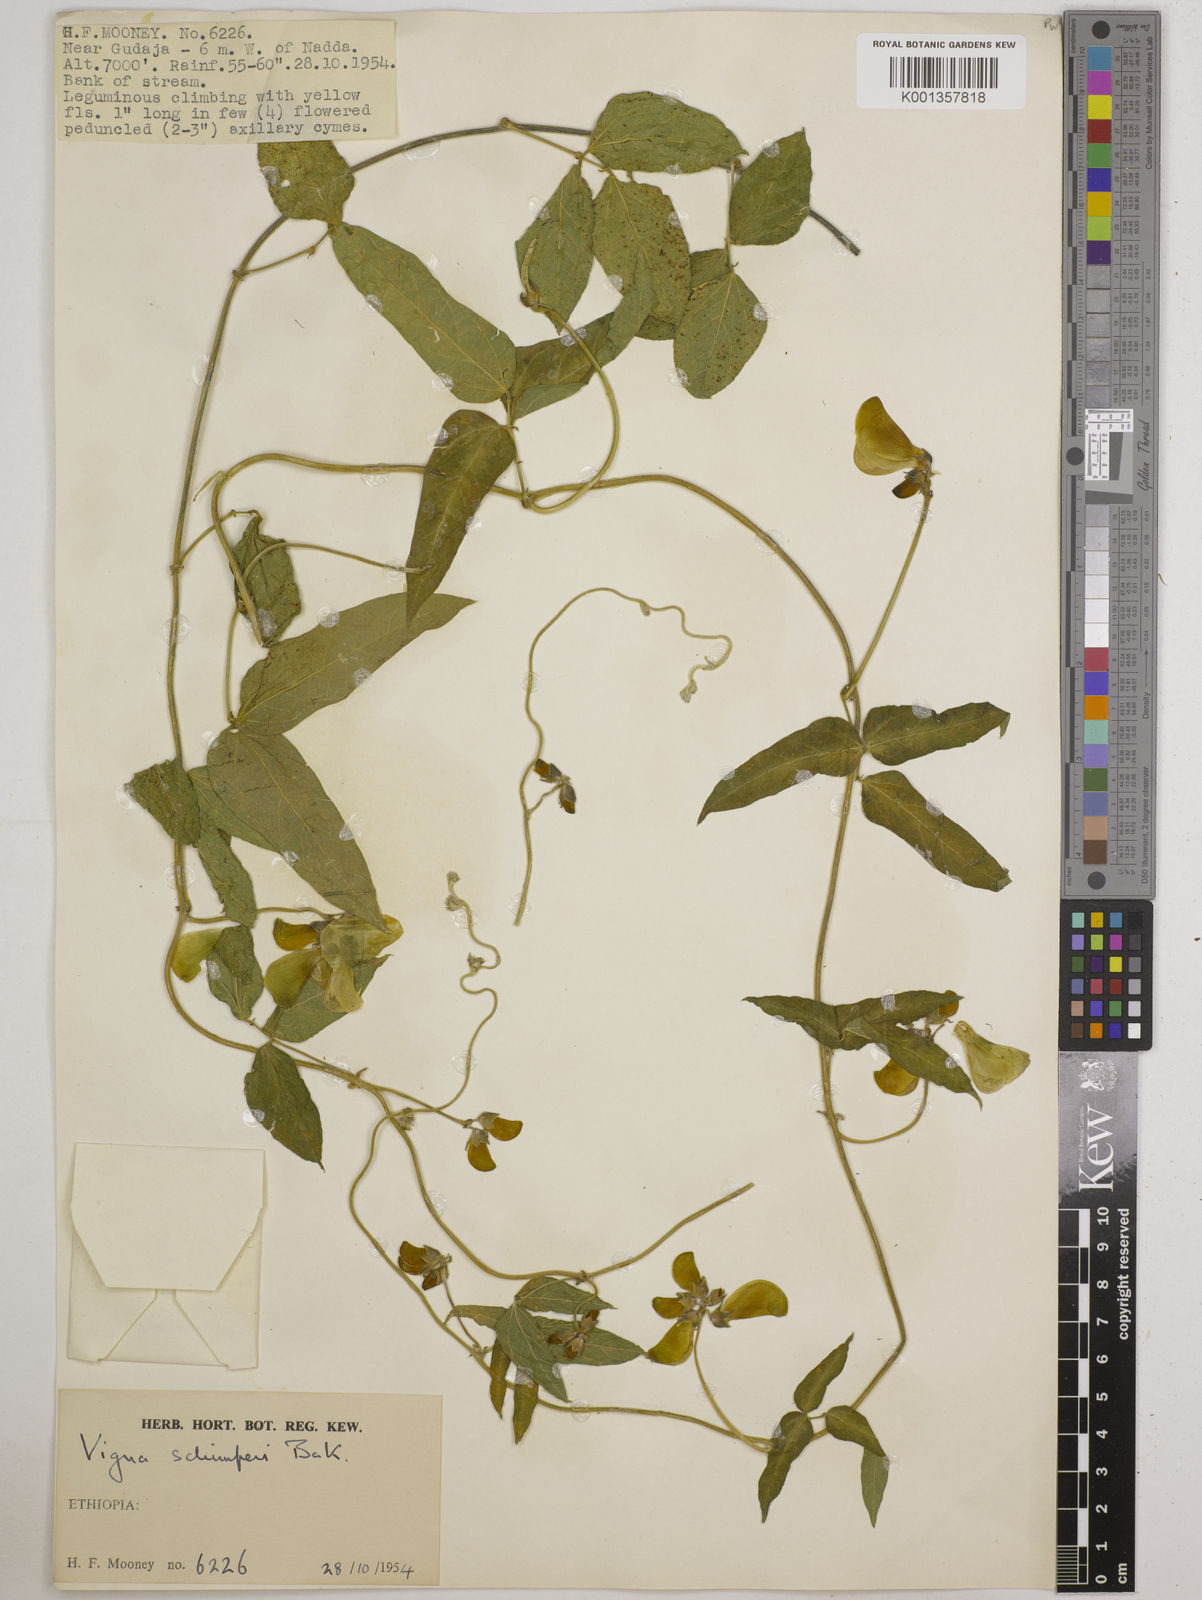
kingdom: Plantae
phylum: Tracheophyta
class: Magnoliopsida
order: Fabales
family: Fabaceae
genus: Vigna
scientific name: Vigna schimperi
